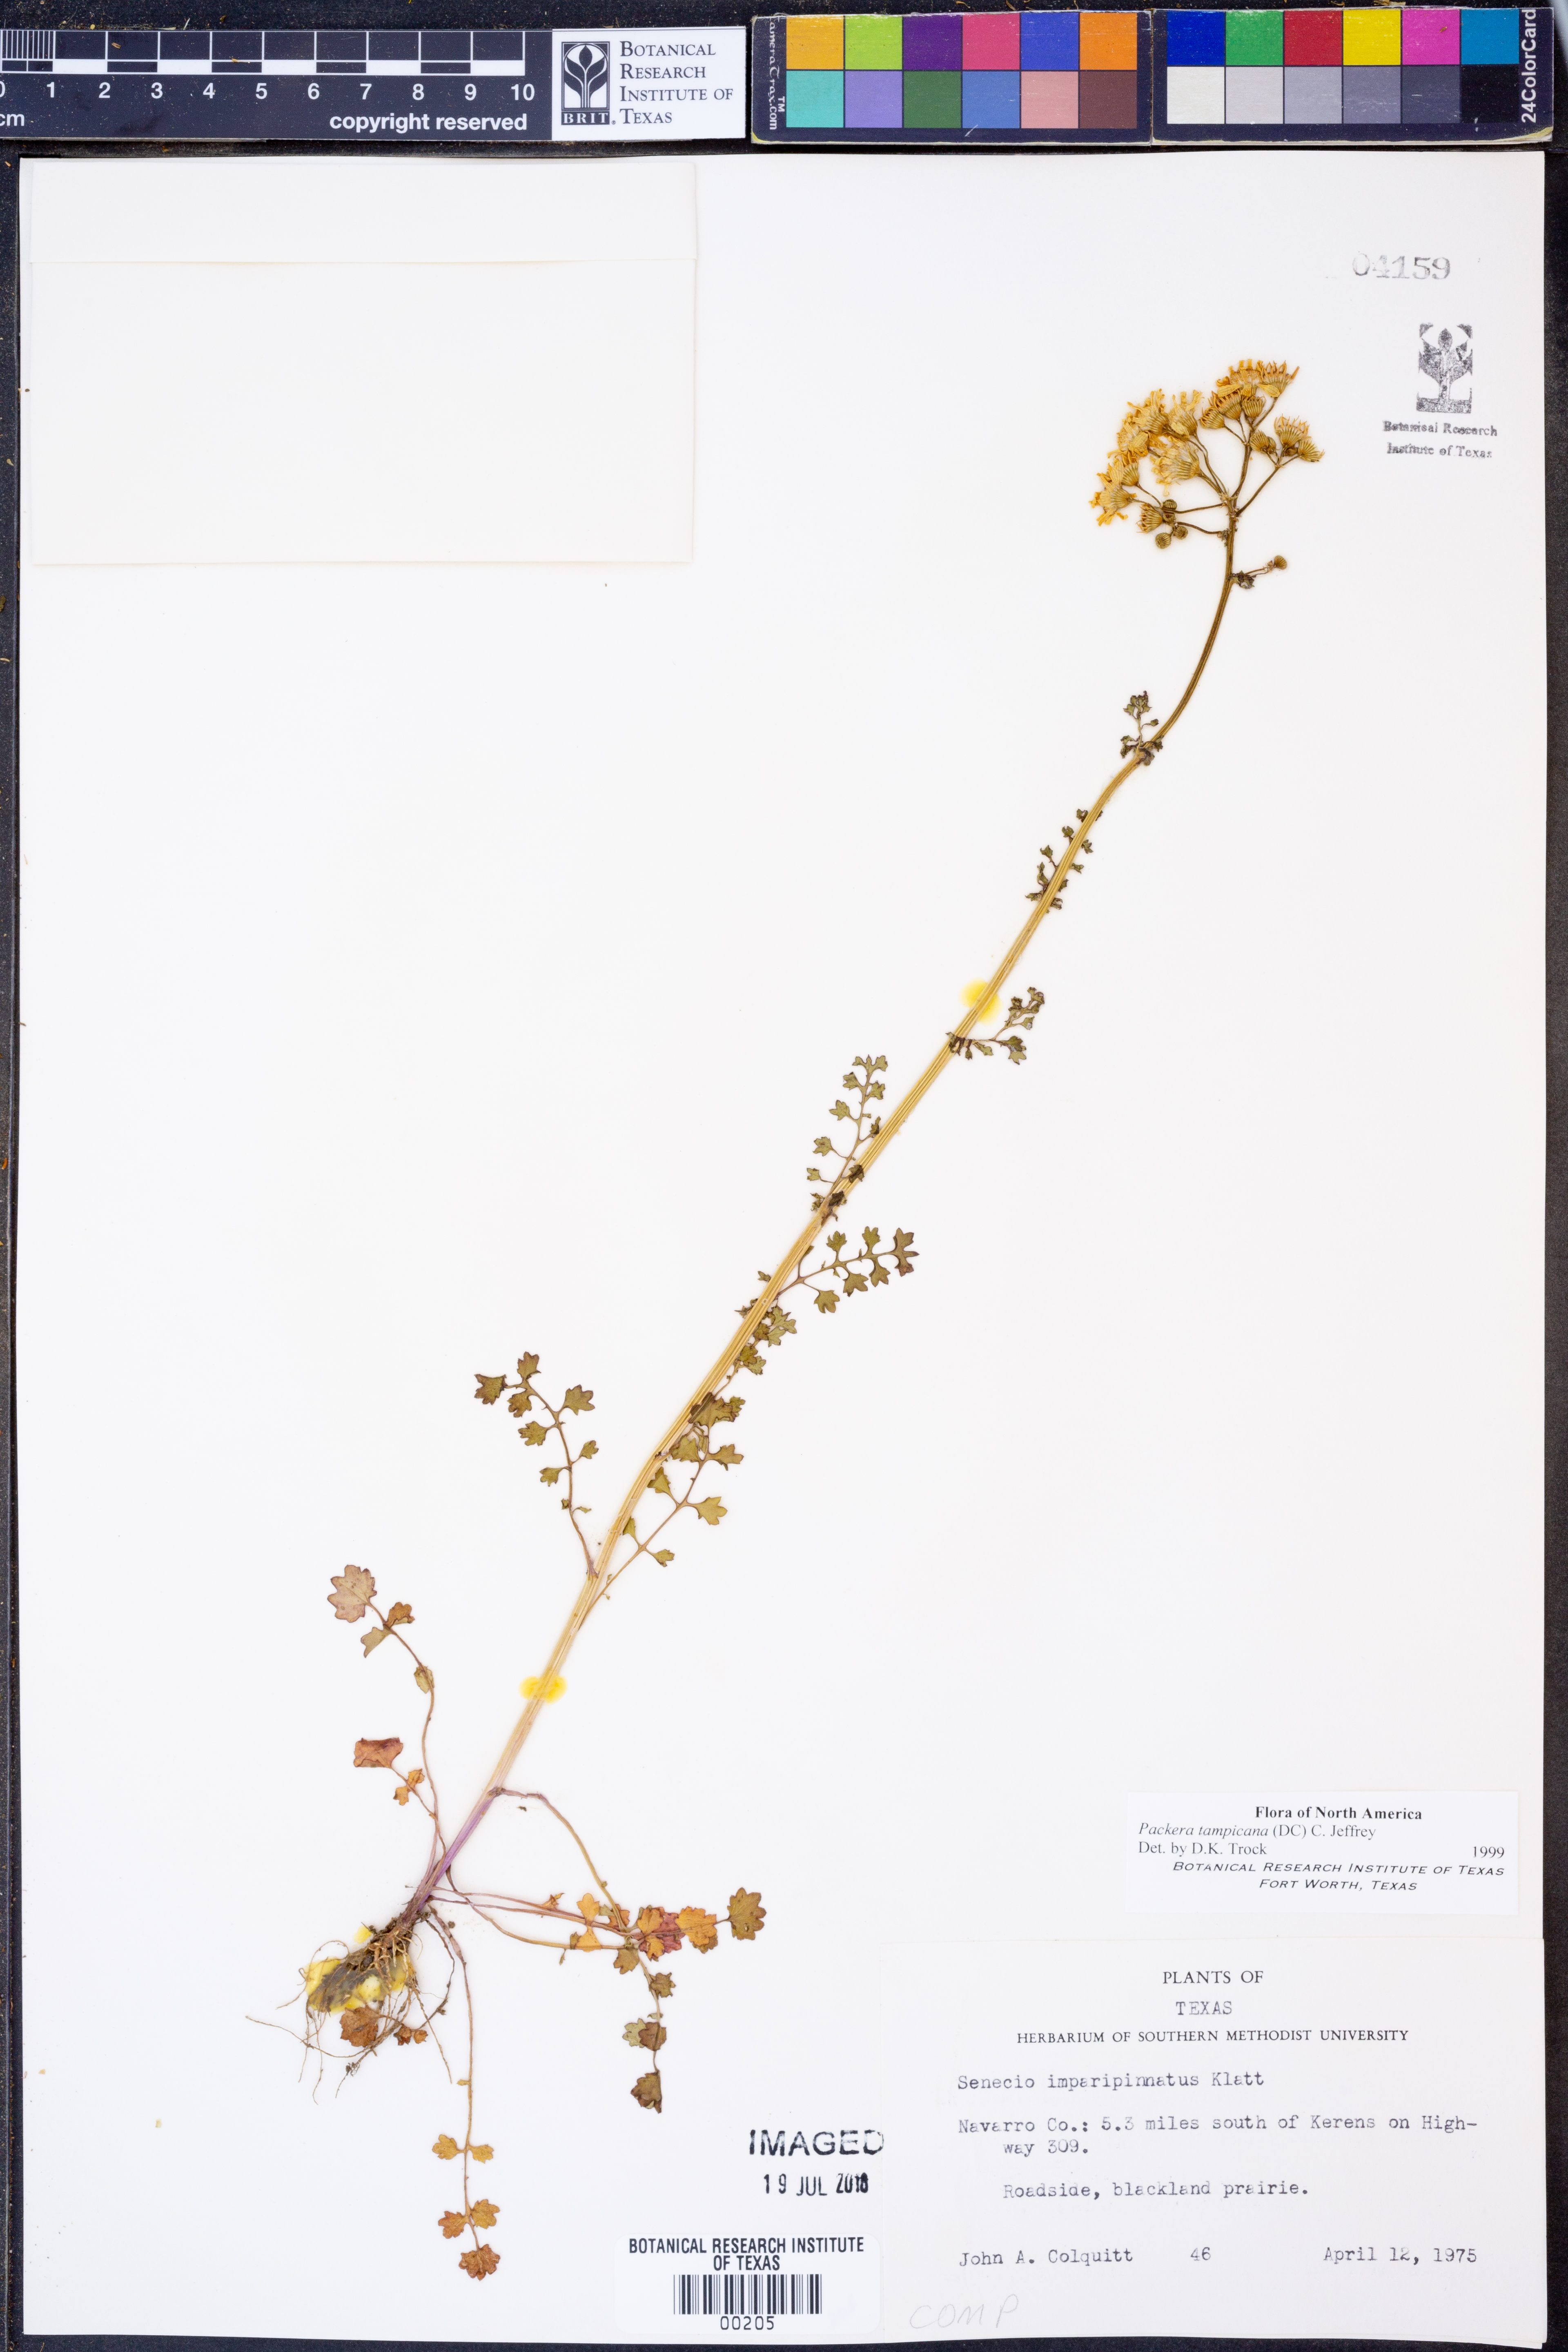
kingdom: Plantae
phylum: Tracheophyta
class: Magnoliopsida
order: Asterales
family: Asteraceae
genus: Packera
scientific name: Packera tampicana
